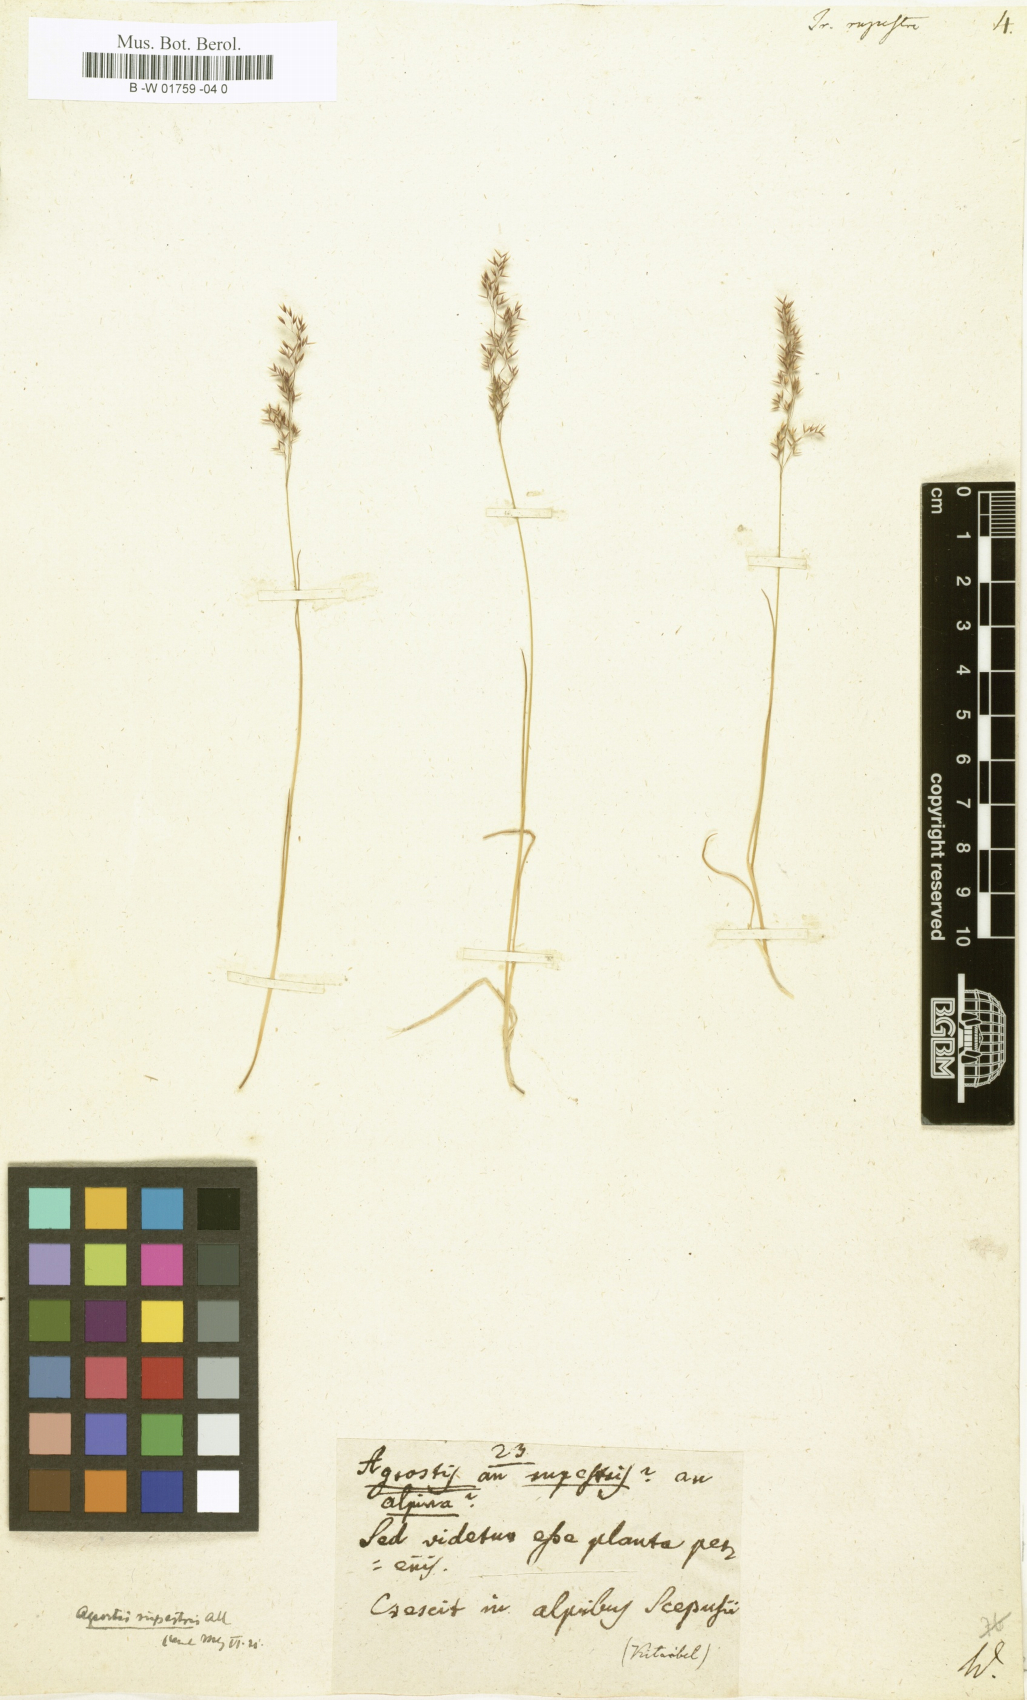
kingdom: Plantae
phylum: Tracheophyta
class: Liliopsida
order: Poales
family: Poaceae
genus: Alpagrostis
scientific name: Alpagrostis alpina
